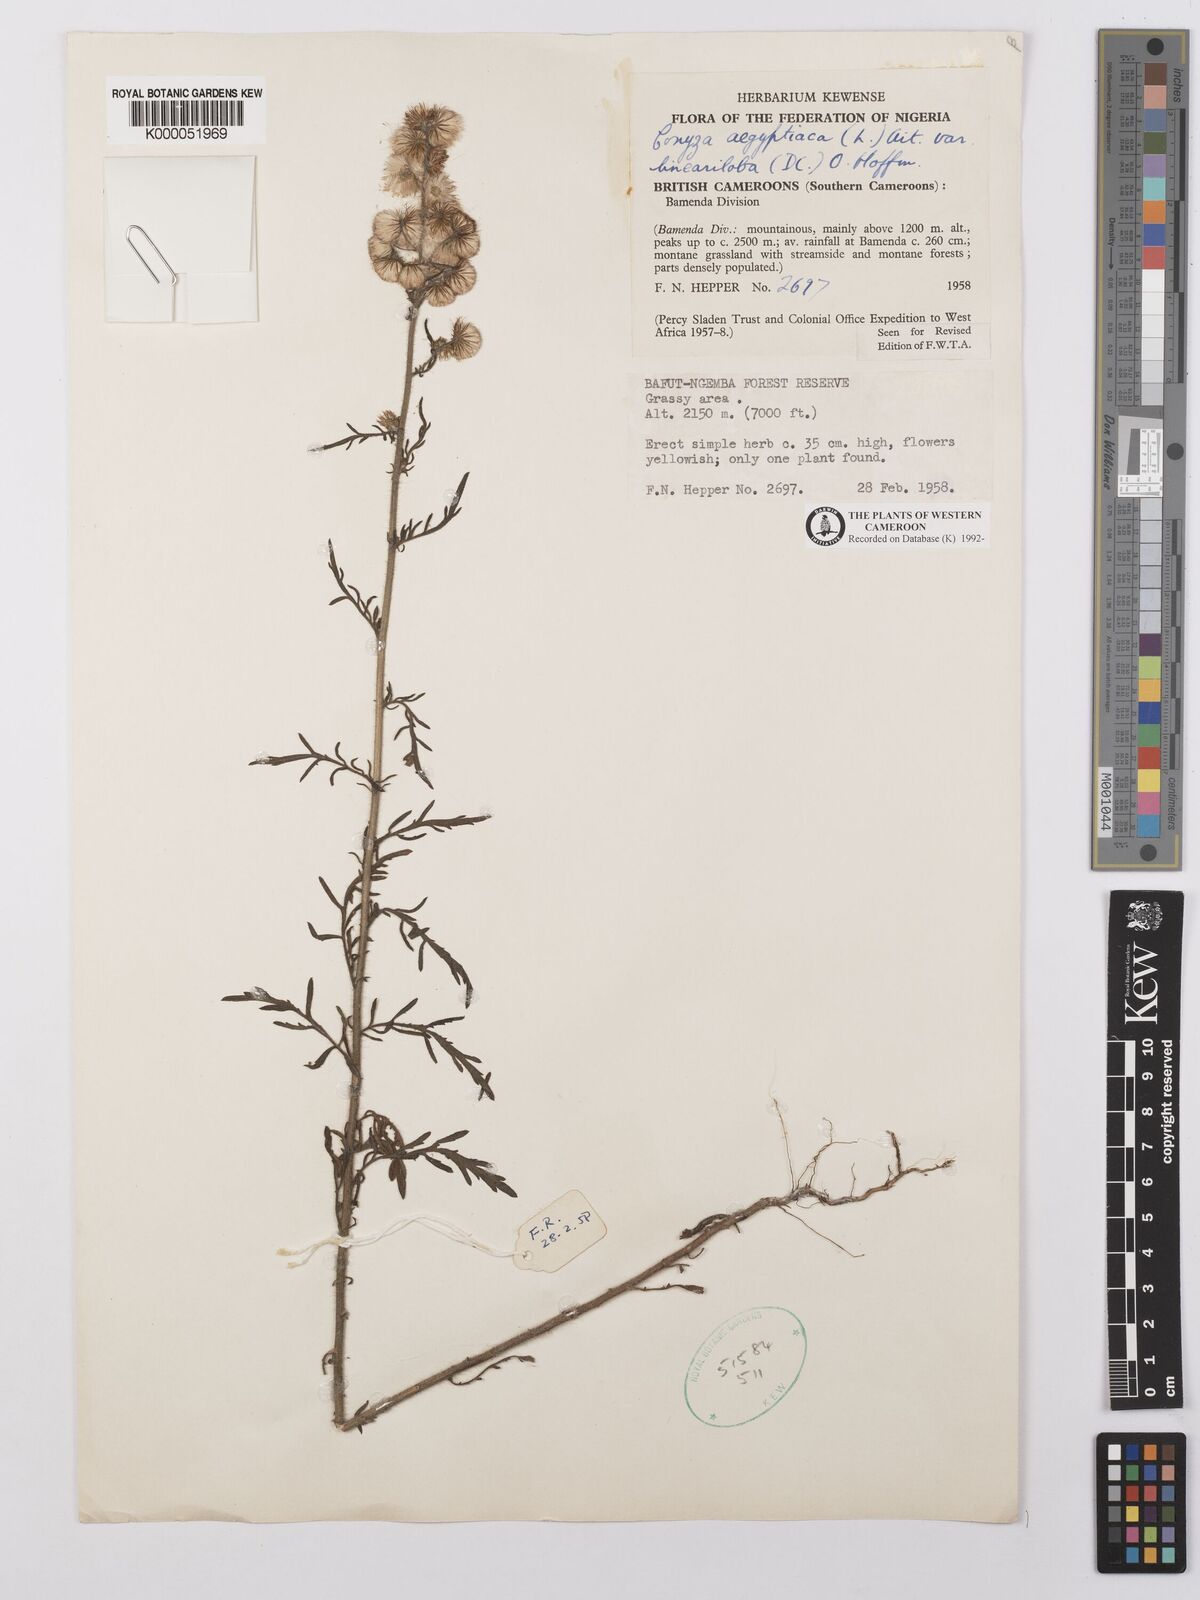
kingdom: Plantae
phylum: Tracheophyta
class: Magnoliopsida
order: Asterales
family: Asteraceae
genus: Nidorella
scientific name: Nidorella aegyptiaca
